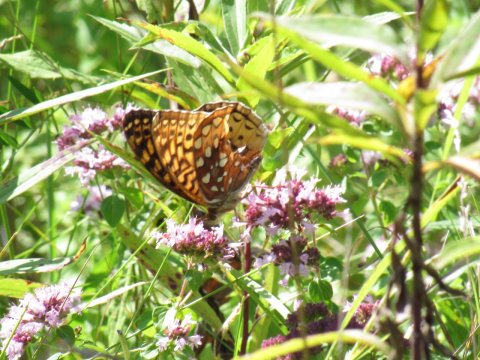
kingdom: Animalia
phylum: Arthropoda
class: Insecta
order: Lepidoptera
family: Nymphalidae
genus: Speyeria
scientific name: Speyeria cybele
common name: Great Spangled Fritillary
